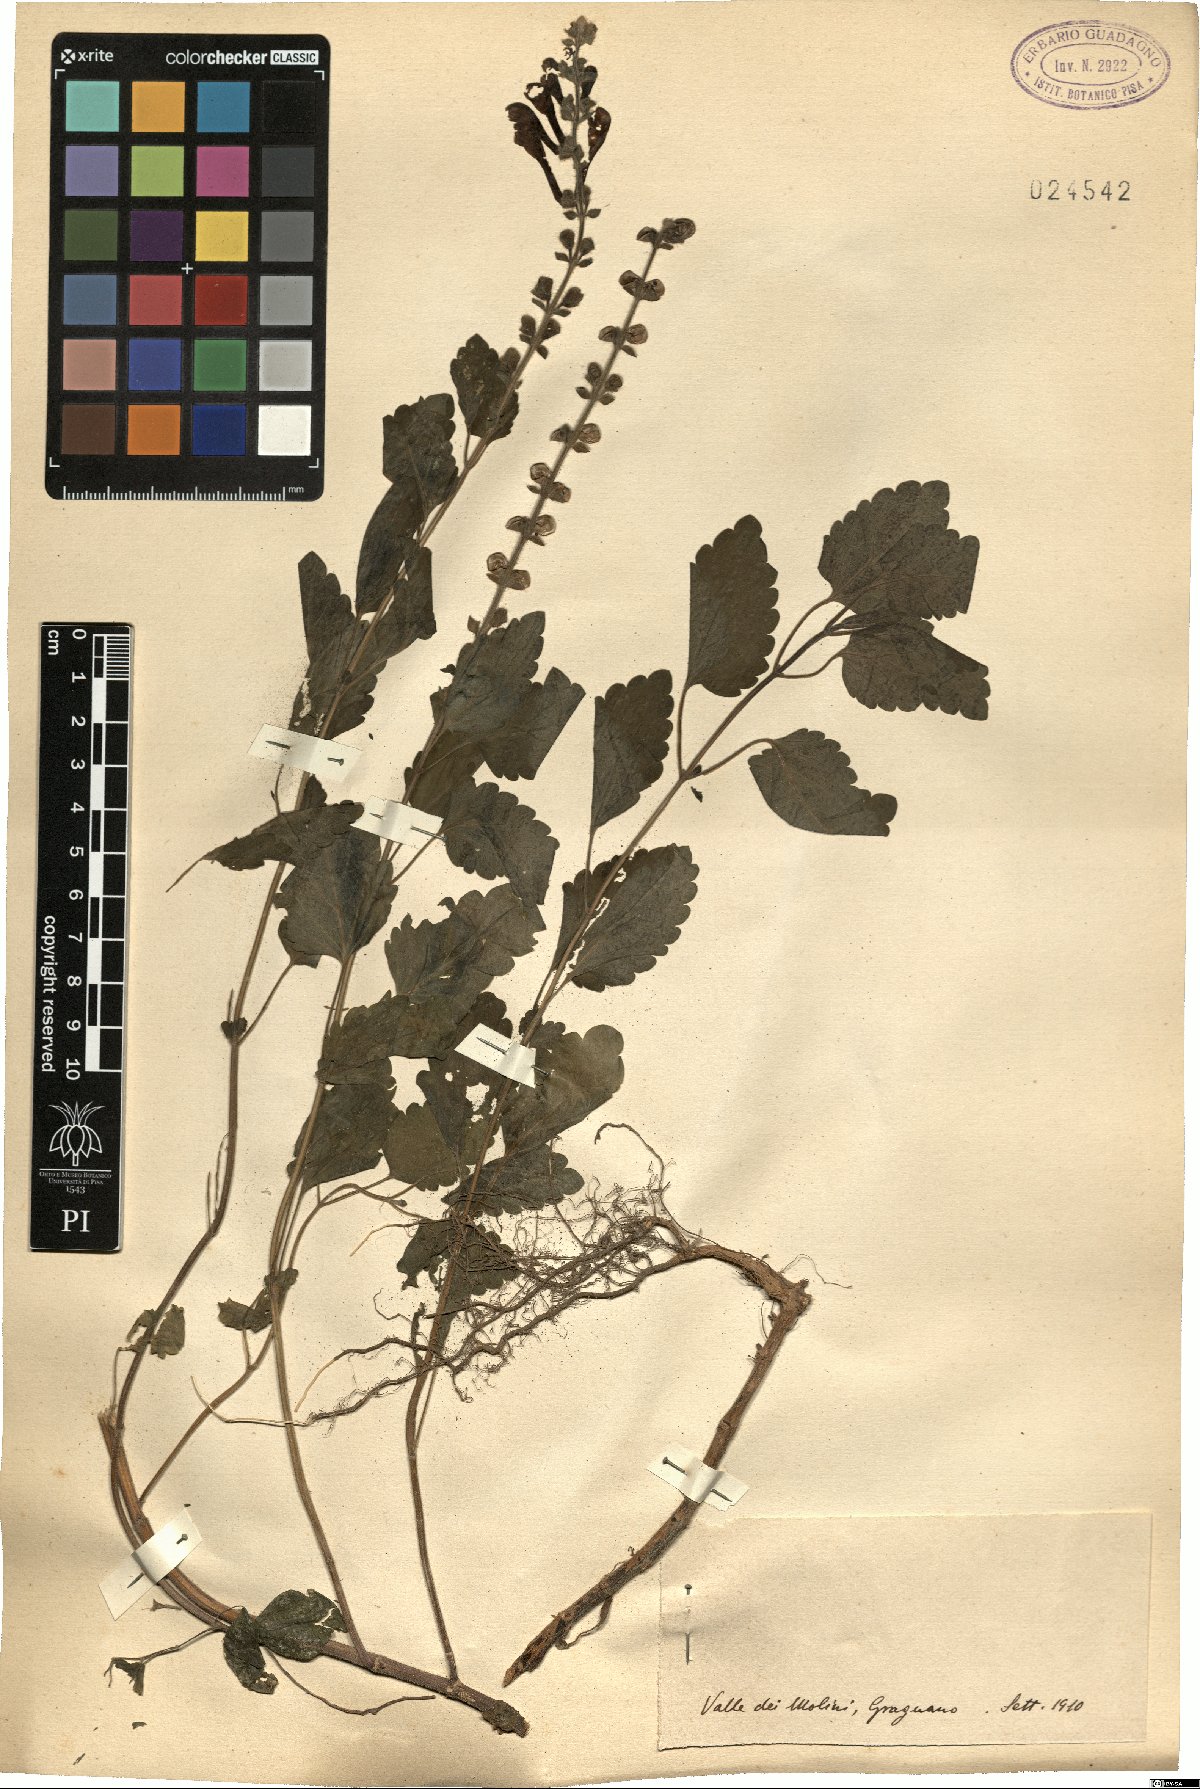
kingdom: Plantae
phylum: Tracheophyta
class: Magnoliopsida
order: Lamiales
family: Lamiaceae
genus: Scutellaria
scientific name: Scutellaria
